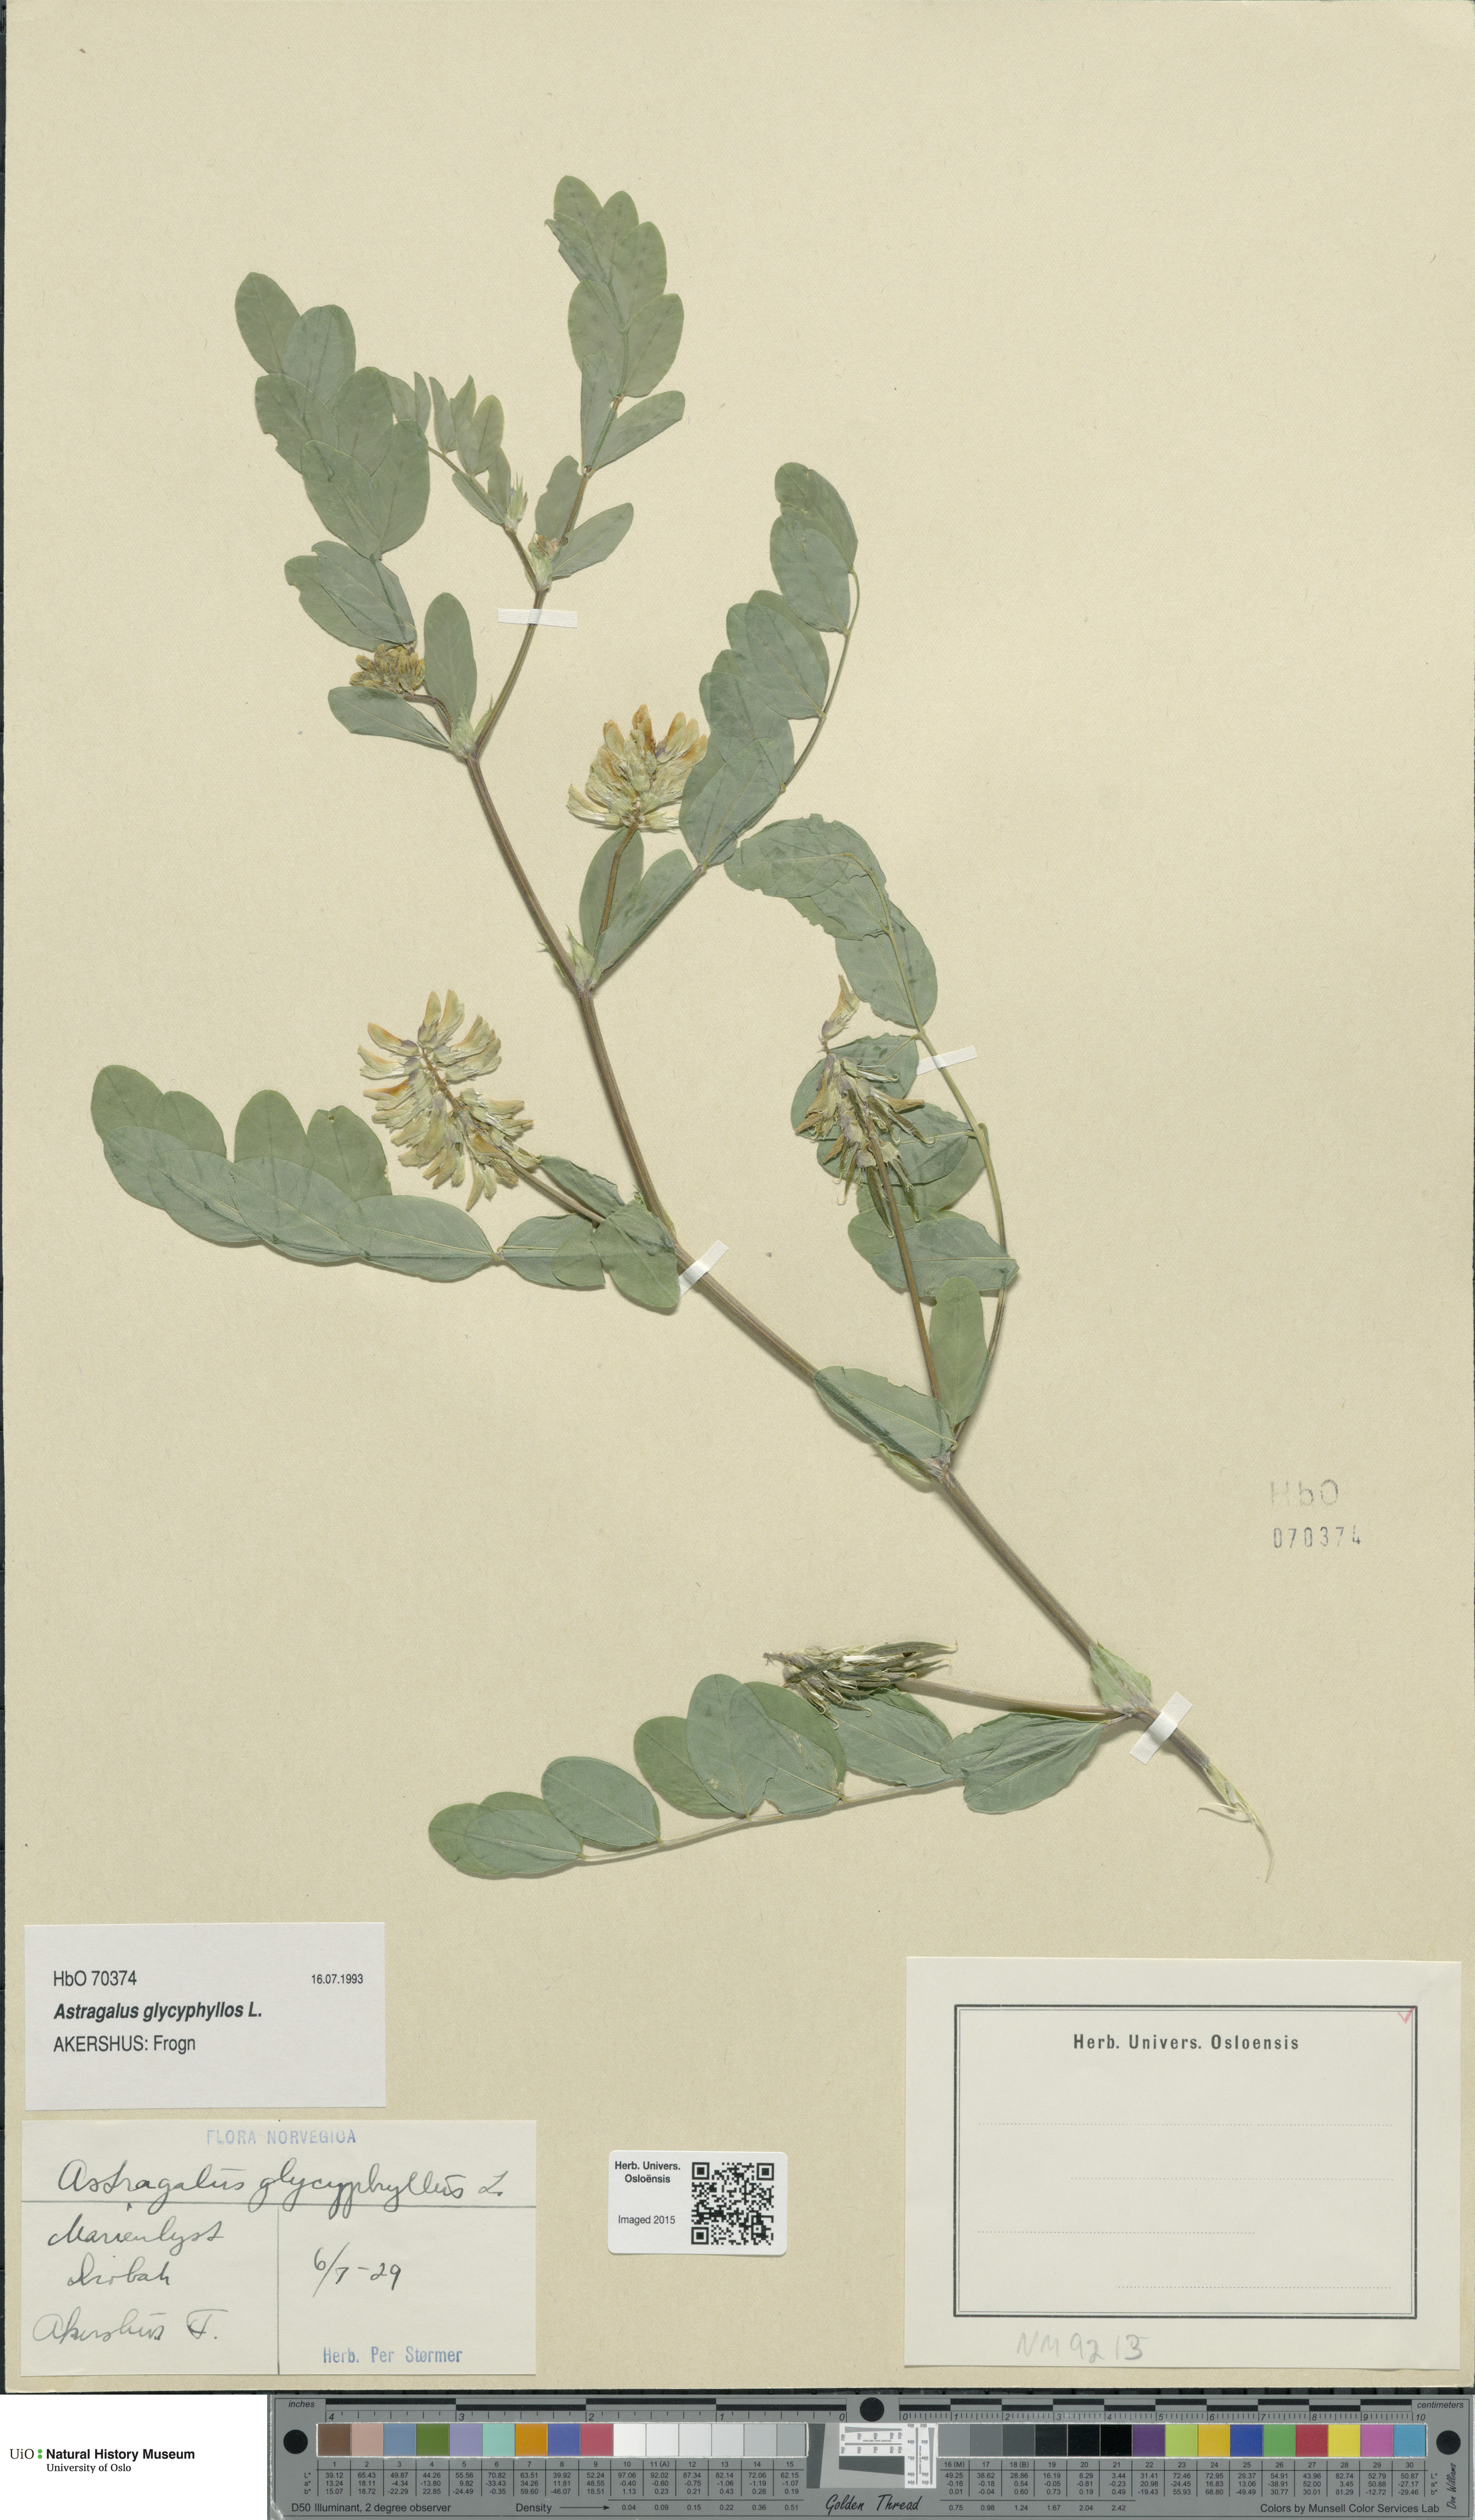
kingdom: Plantae
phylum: Tracheophyta
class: Magnoliopsida
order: Fabales
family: Fabaceae
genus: Astragalus
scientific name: Astragalus glycyphyllos
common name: Wild liquorice
